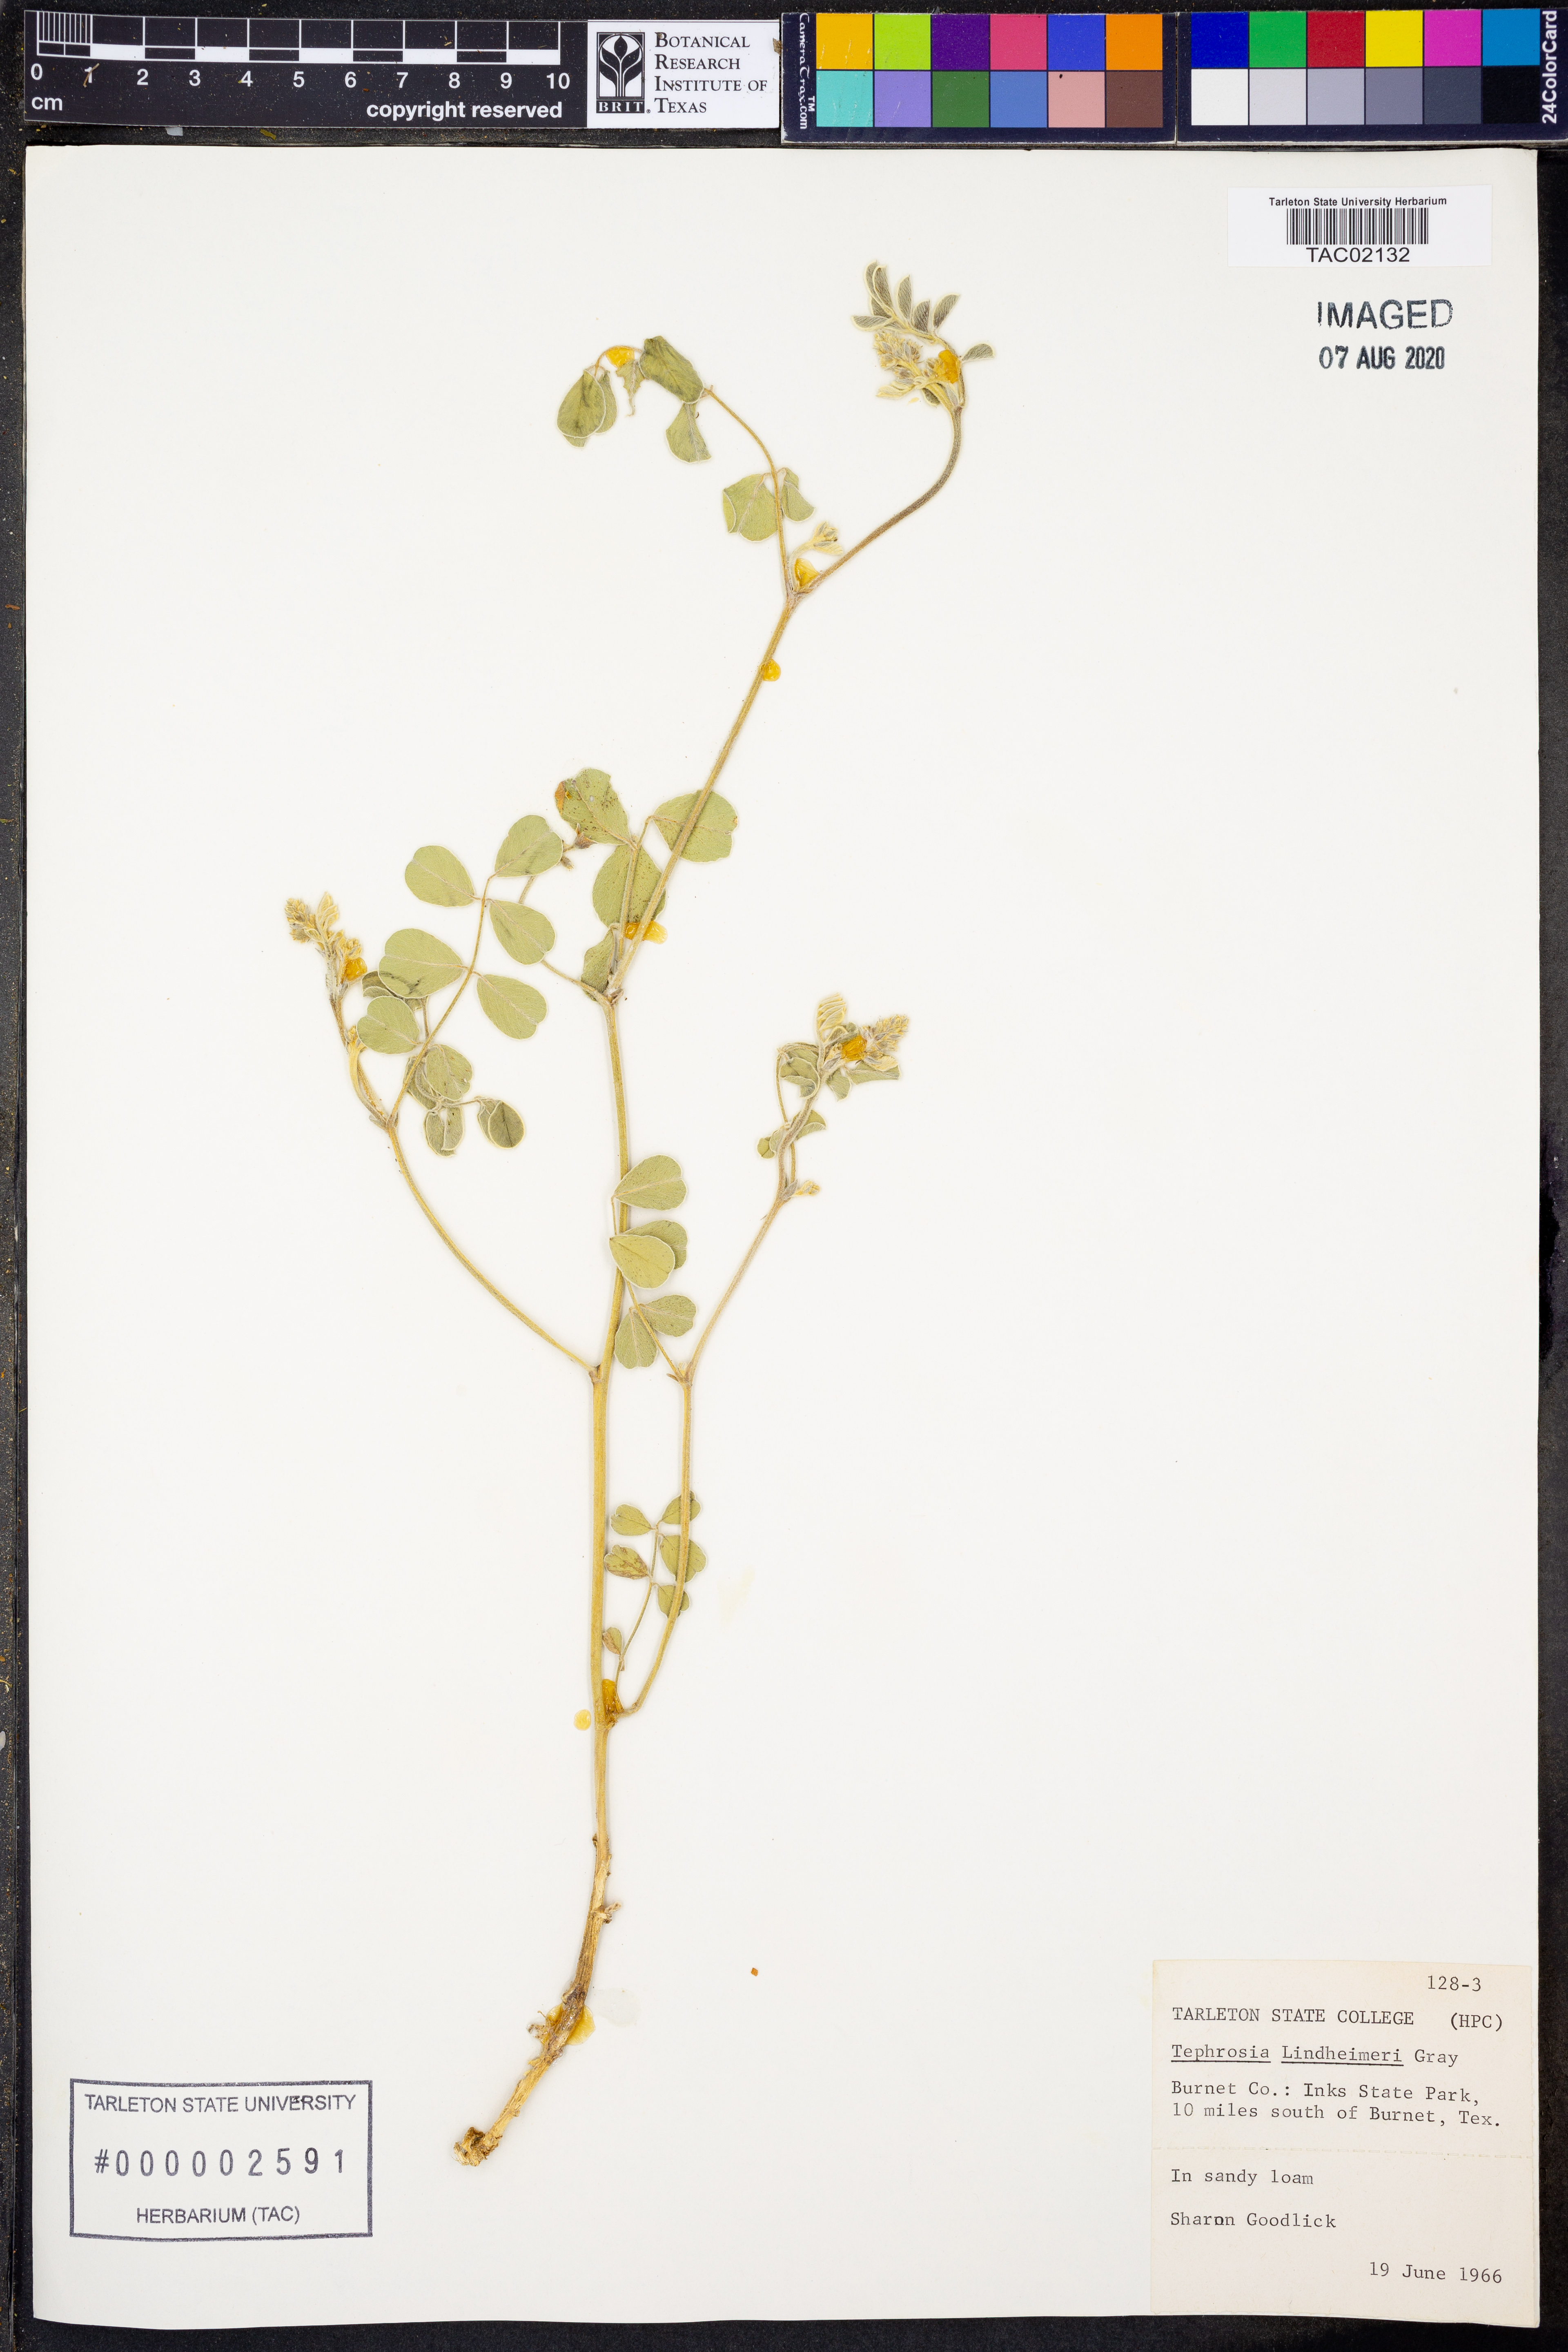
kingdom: Plantae
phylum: Tracheophyta
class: Magnoliopsida
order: Fabales
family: Fabaceae
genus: Tephrosia
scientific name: Tephrosia lindheimeri
